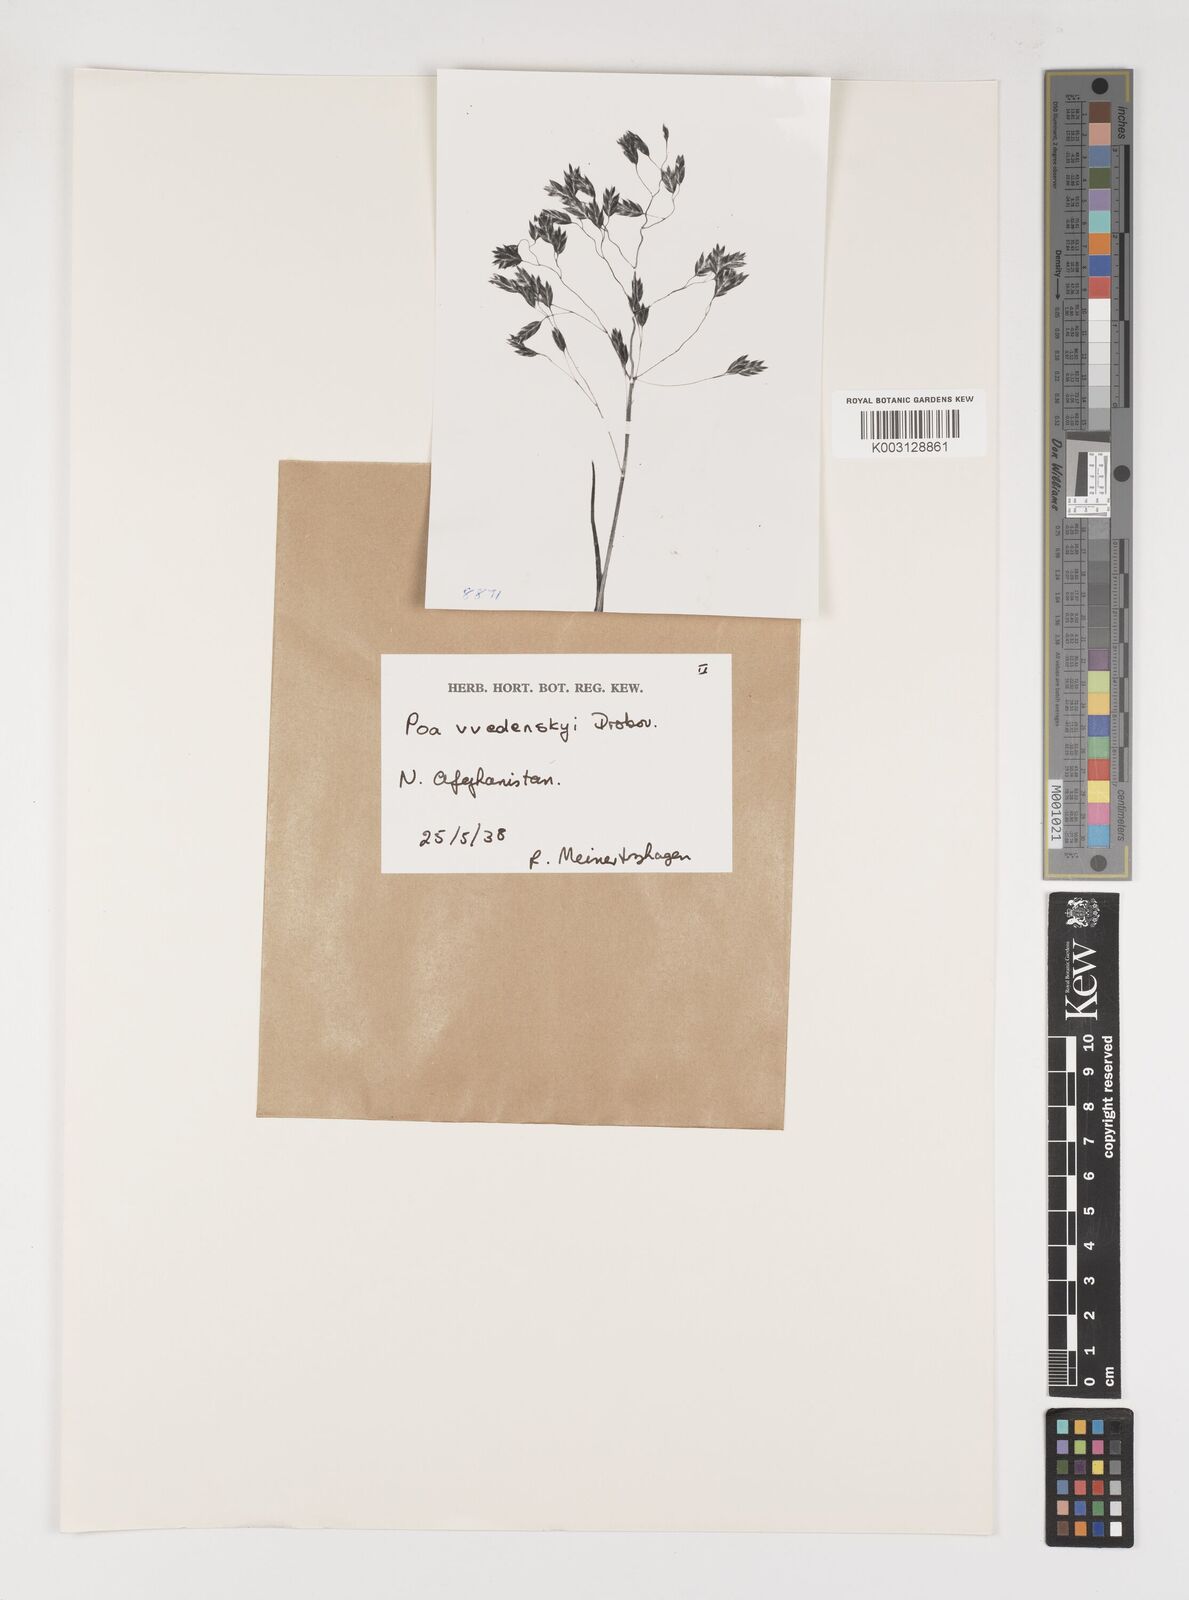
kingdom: Plantae
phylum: Tracheophyta
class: Liliopsida
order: Poales
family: Poaceae
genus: Poa
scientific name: Poa vvedenskyi
